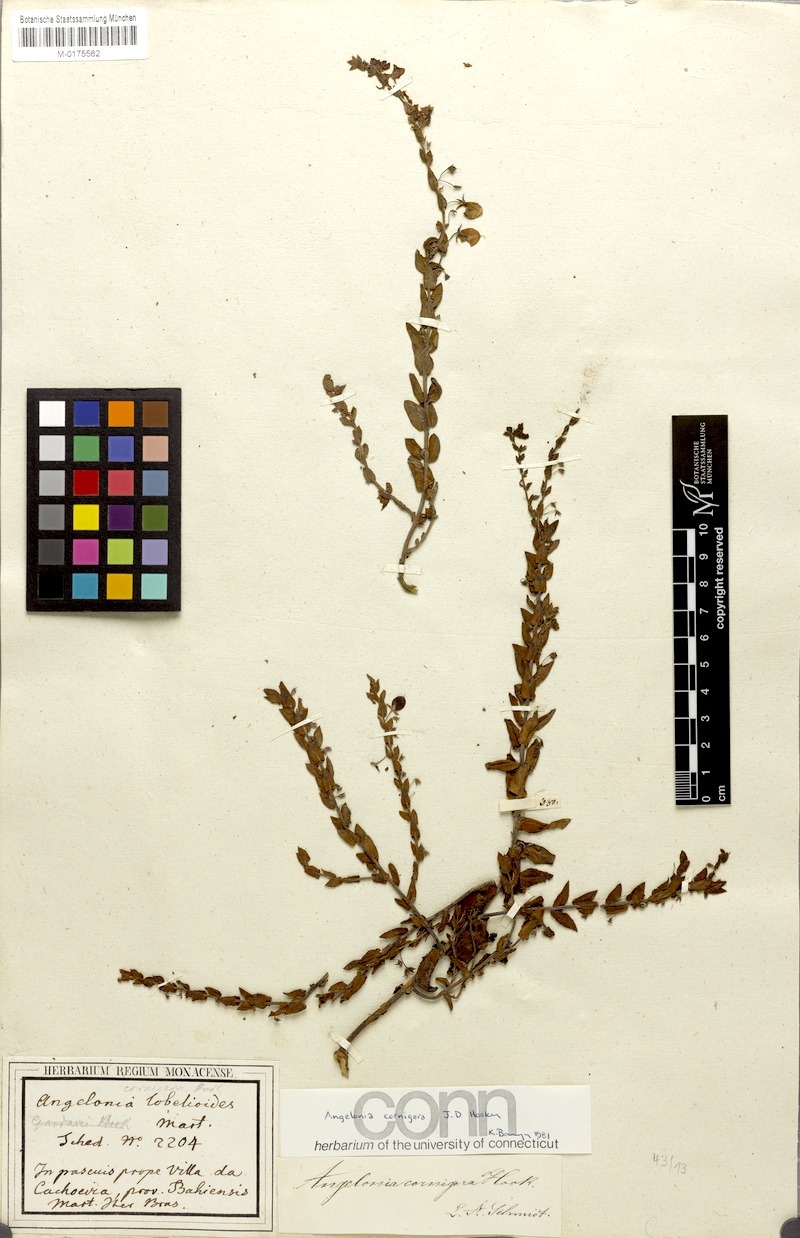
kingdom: Plantae
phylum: Tracheophyta
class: Magnoliopsida
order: Lamiales
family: Plantaginaceae
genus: Angelonia
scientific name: Angelonia cornigera
